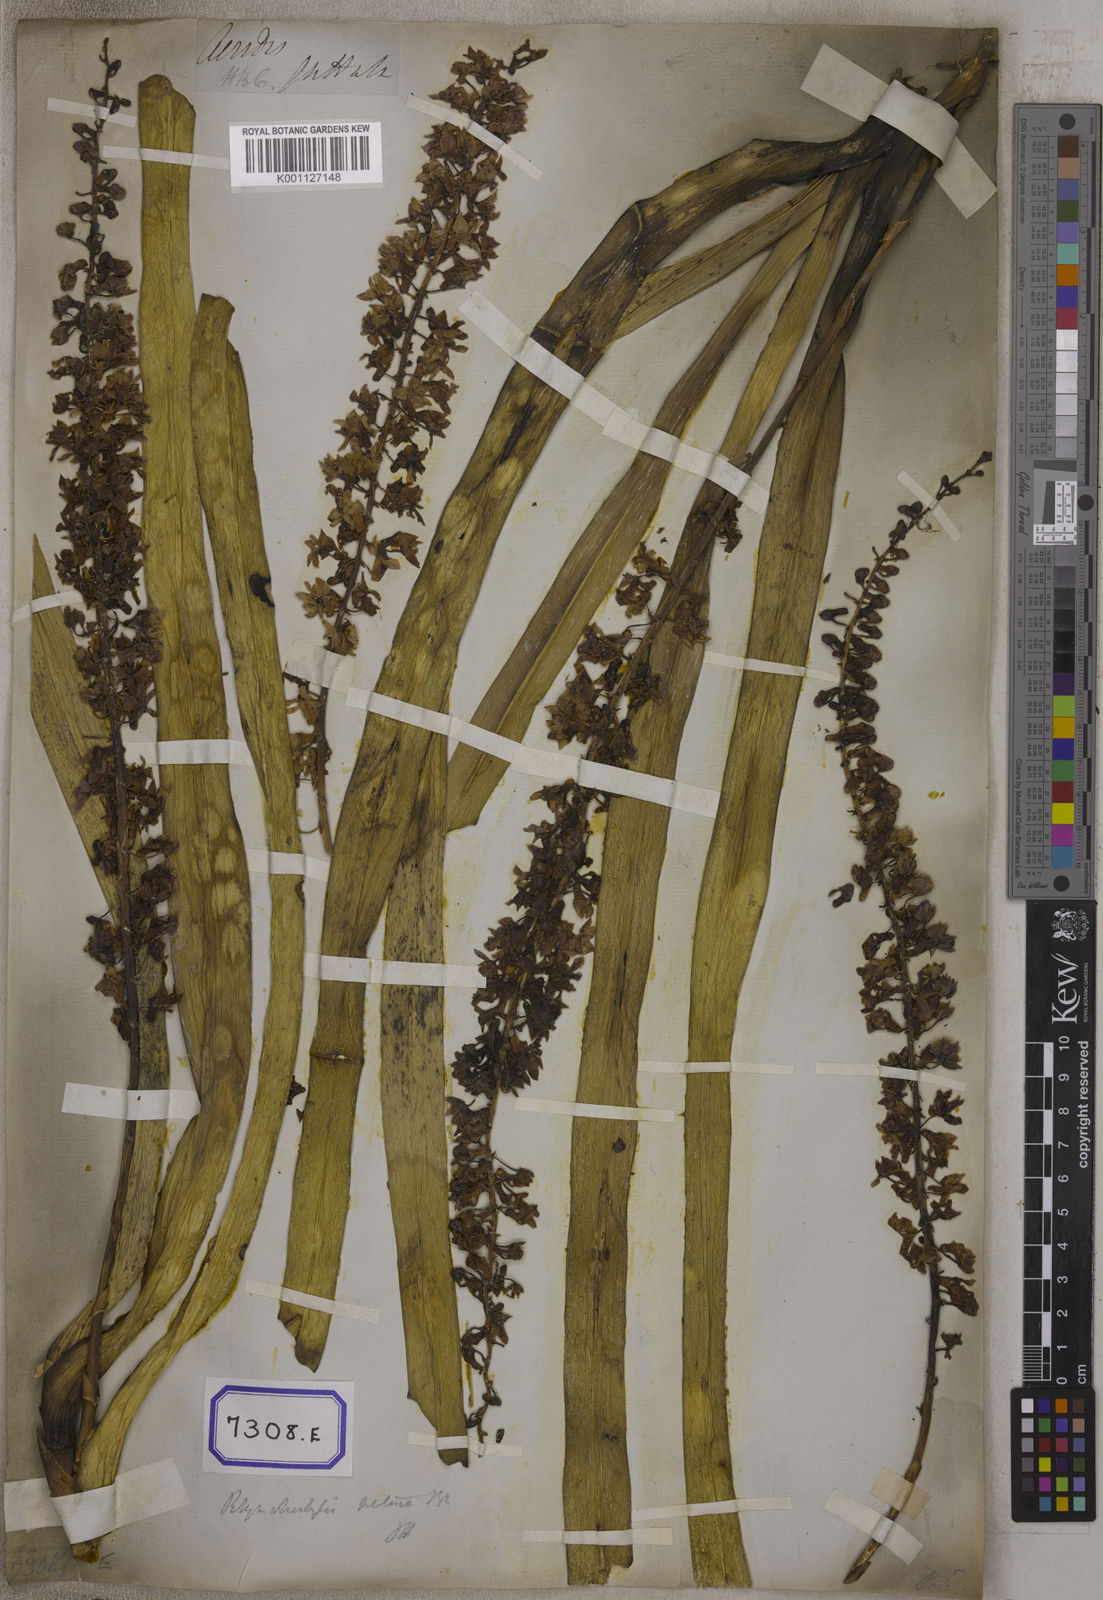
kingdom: Plantae
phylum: Tracheophyta
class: Liliopsida
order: Asparagales
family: Orchidaceae
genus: Saccolabium
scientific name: Saccolabium
